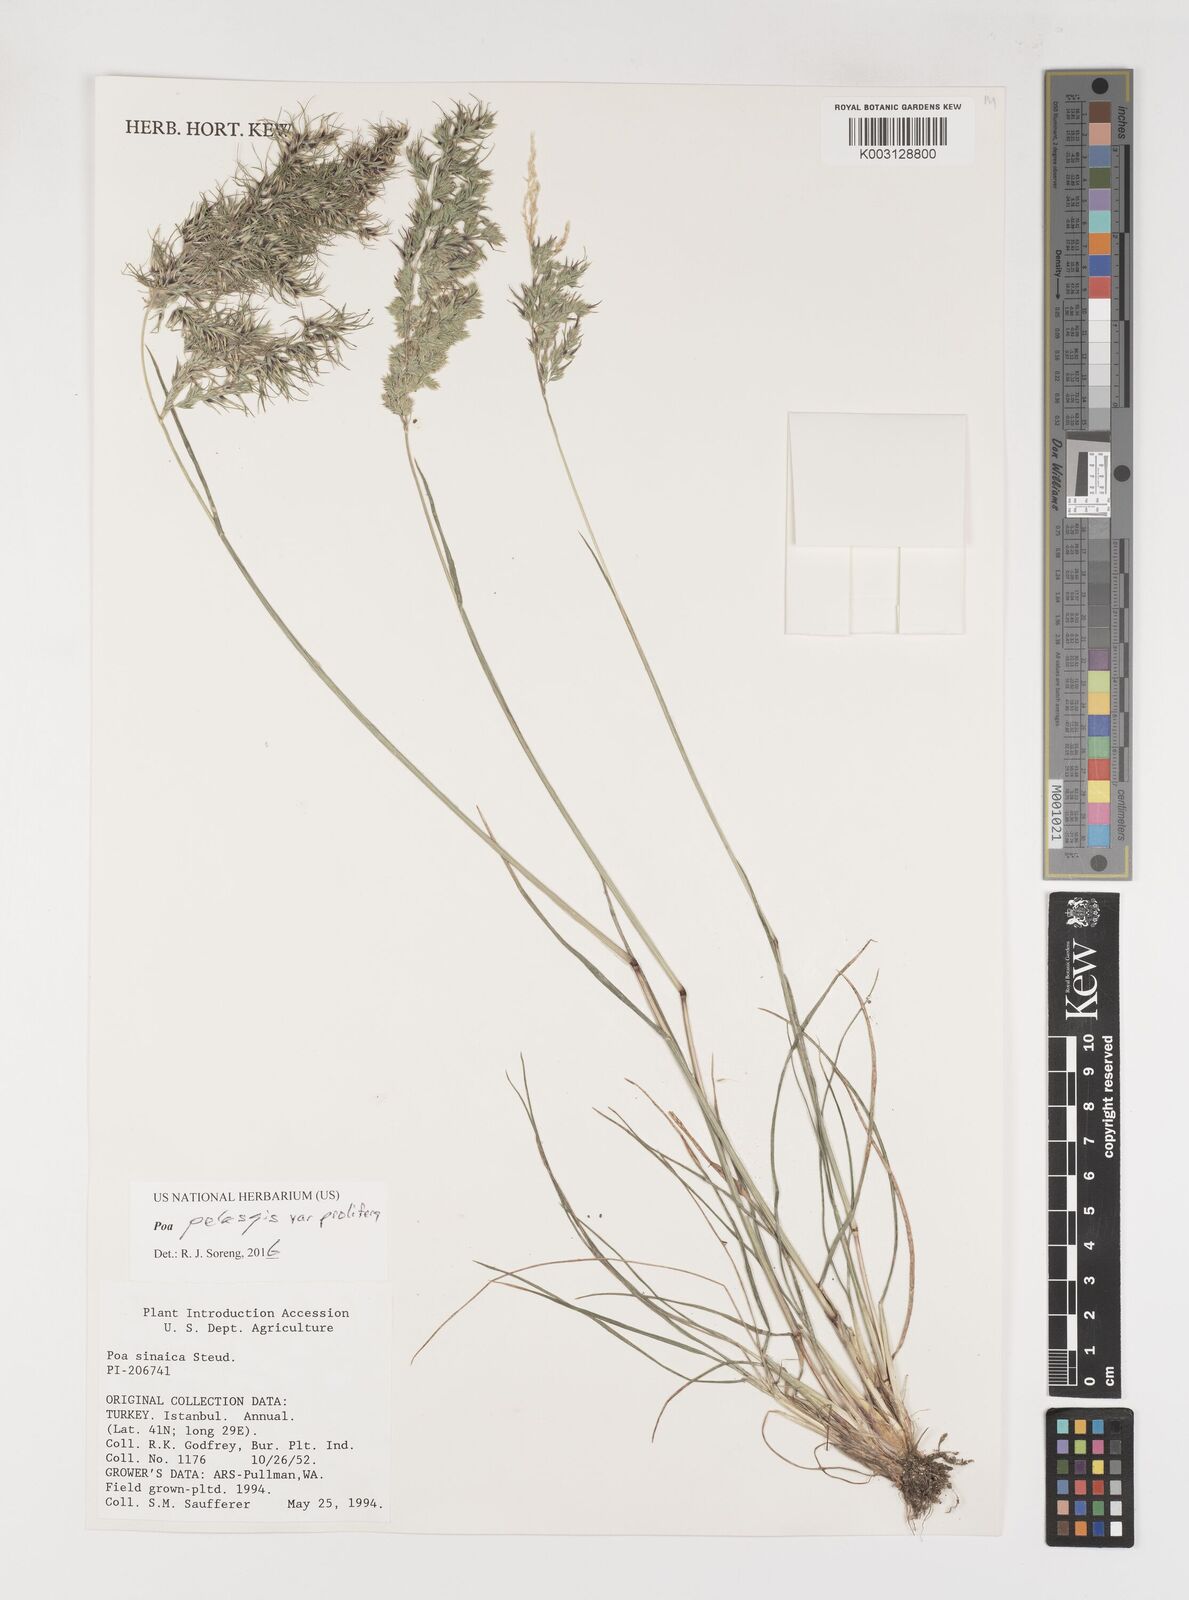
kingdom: Plantae
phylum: Tracheophyta
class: Liliopsida
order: Poales
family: Poaceae
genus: Poa
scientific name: Poa iconia
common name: Konya bluegrass
